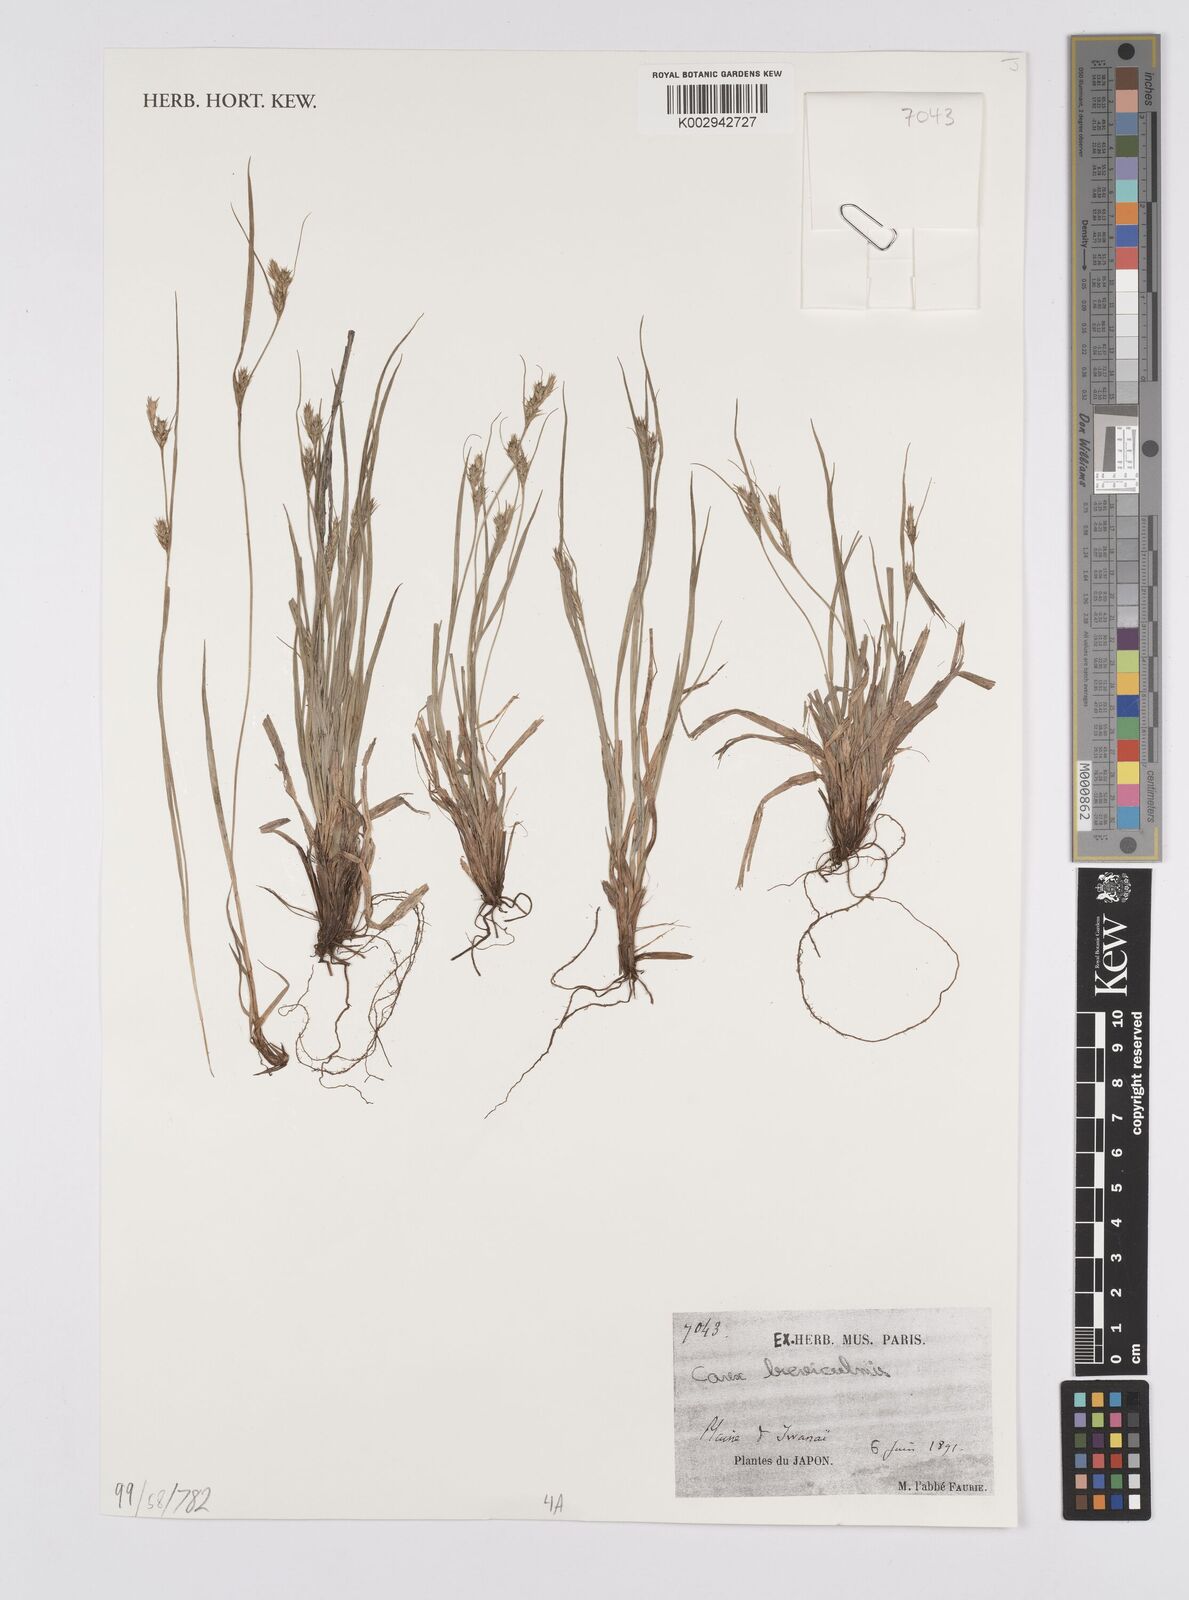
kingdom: Plantae
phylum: Tracheophyta
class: Liliopsida
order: Poales
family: Cyperaceae
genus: Carex
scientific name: Carex ligulata
